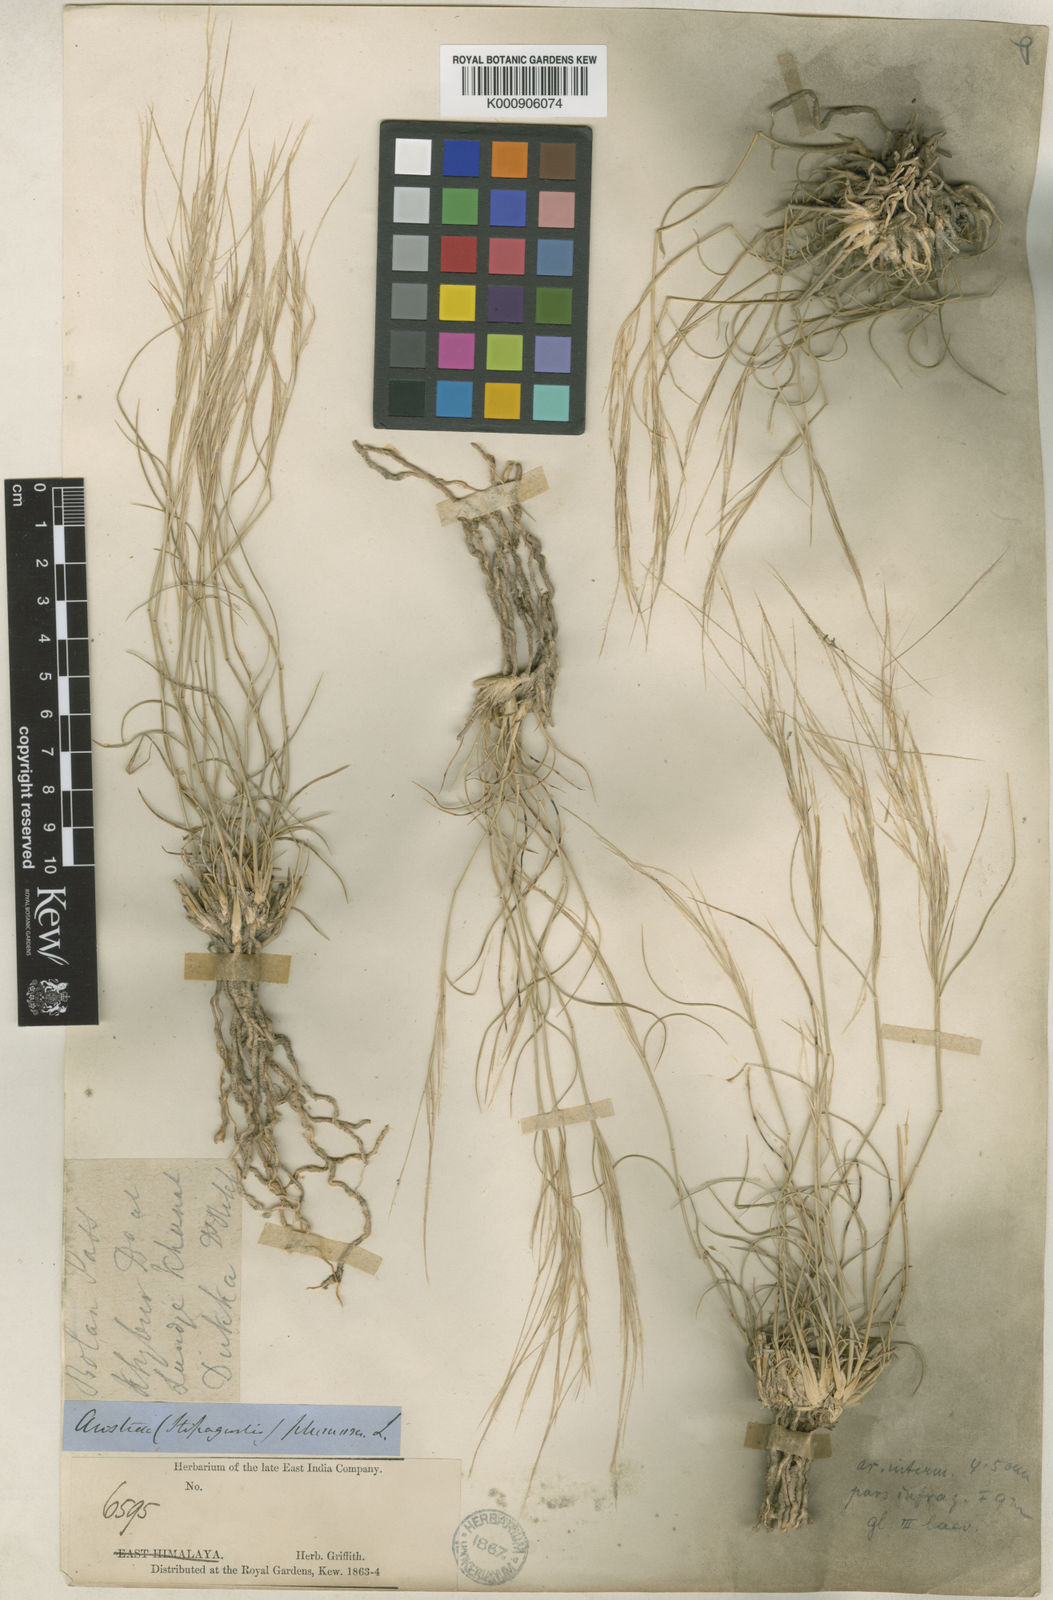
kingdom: Plantae
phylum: Tracheophyta
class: Liliopsida
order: Poales
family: Poaceae
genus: Stipagrostis
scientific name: Stipagrostis griffithii
